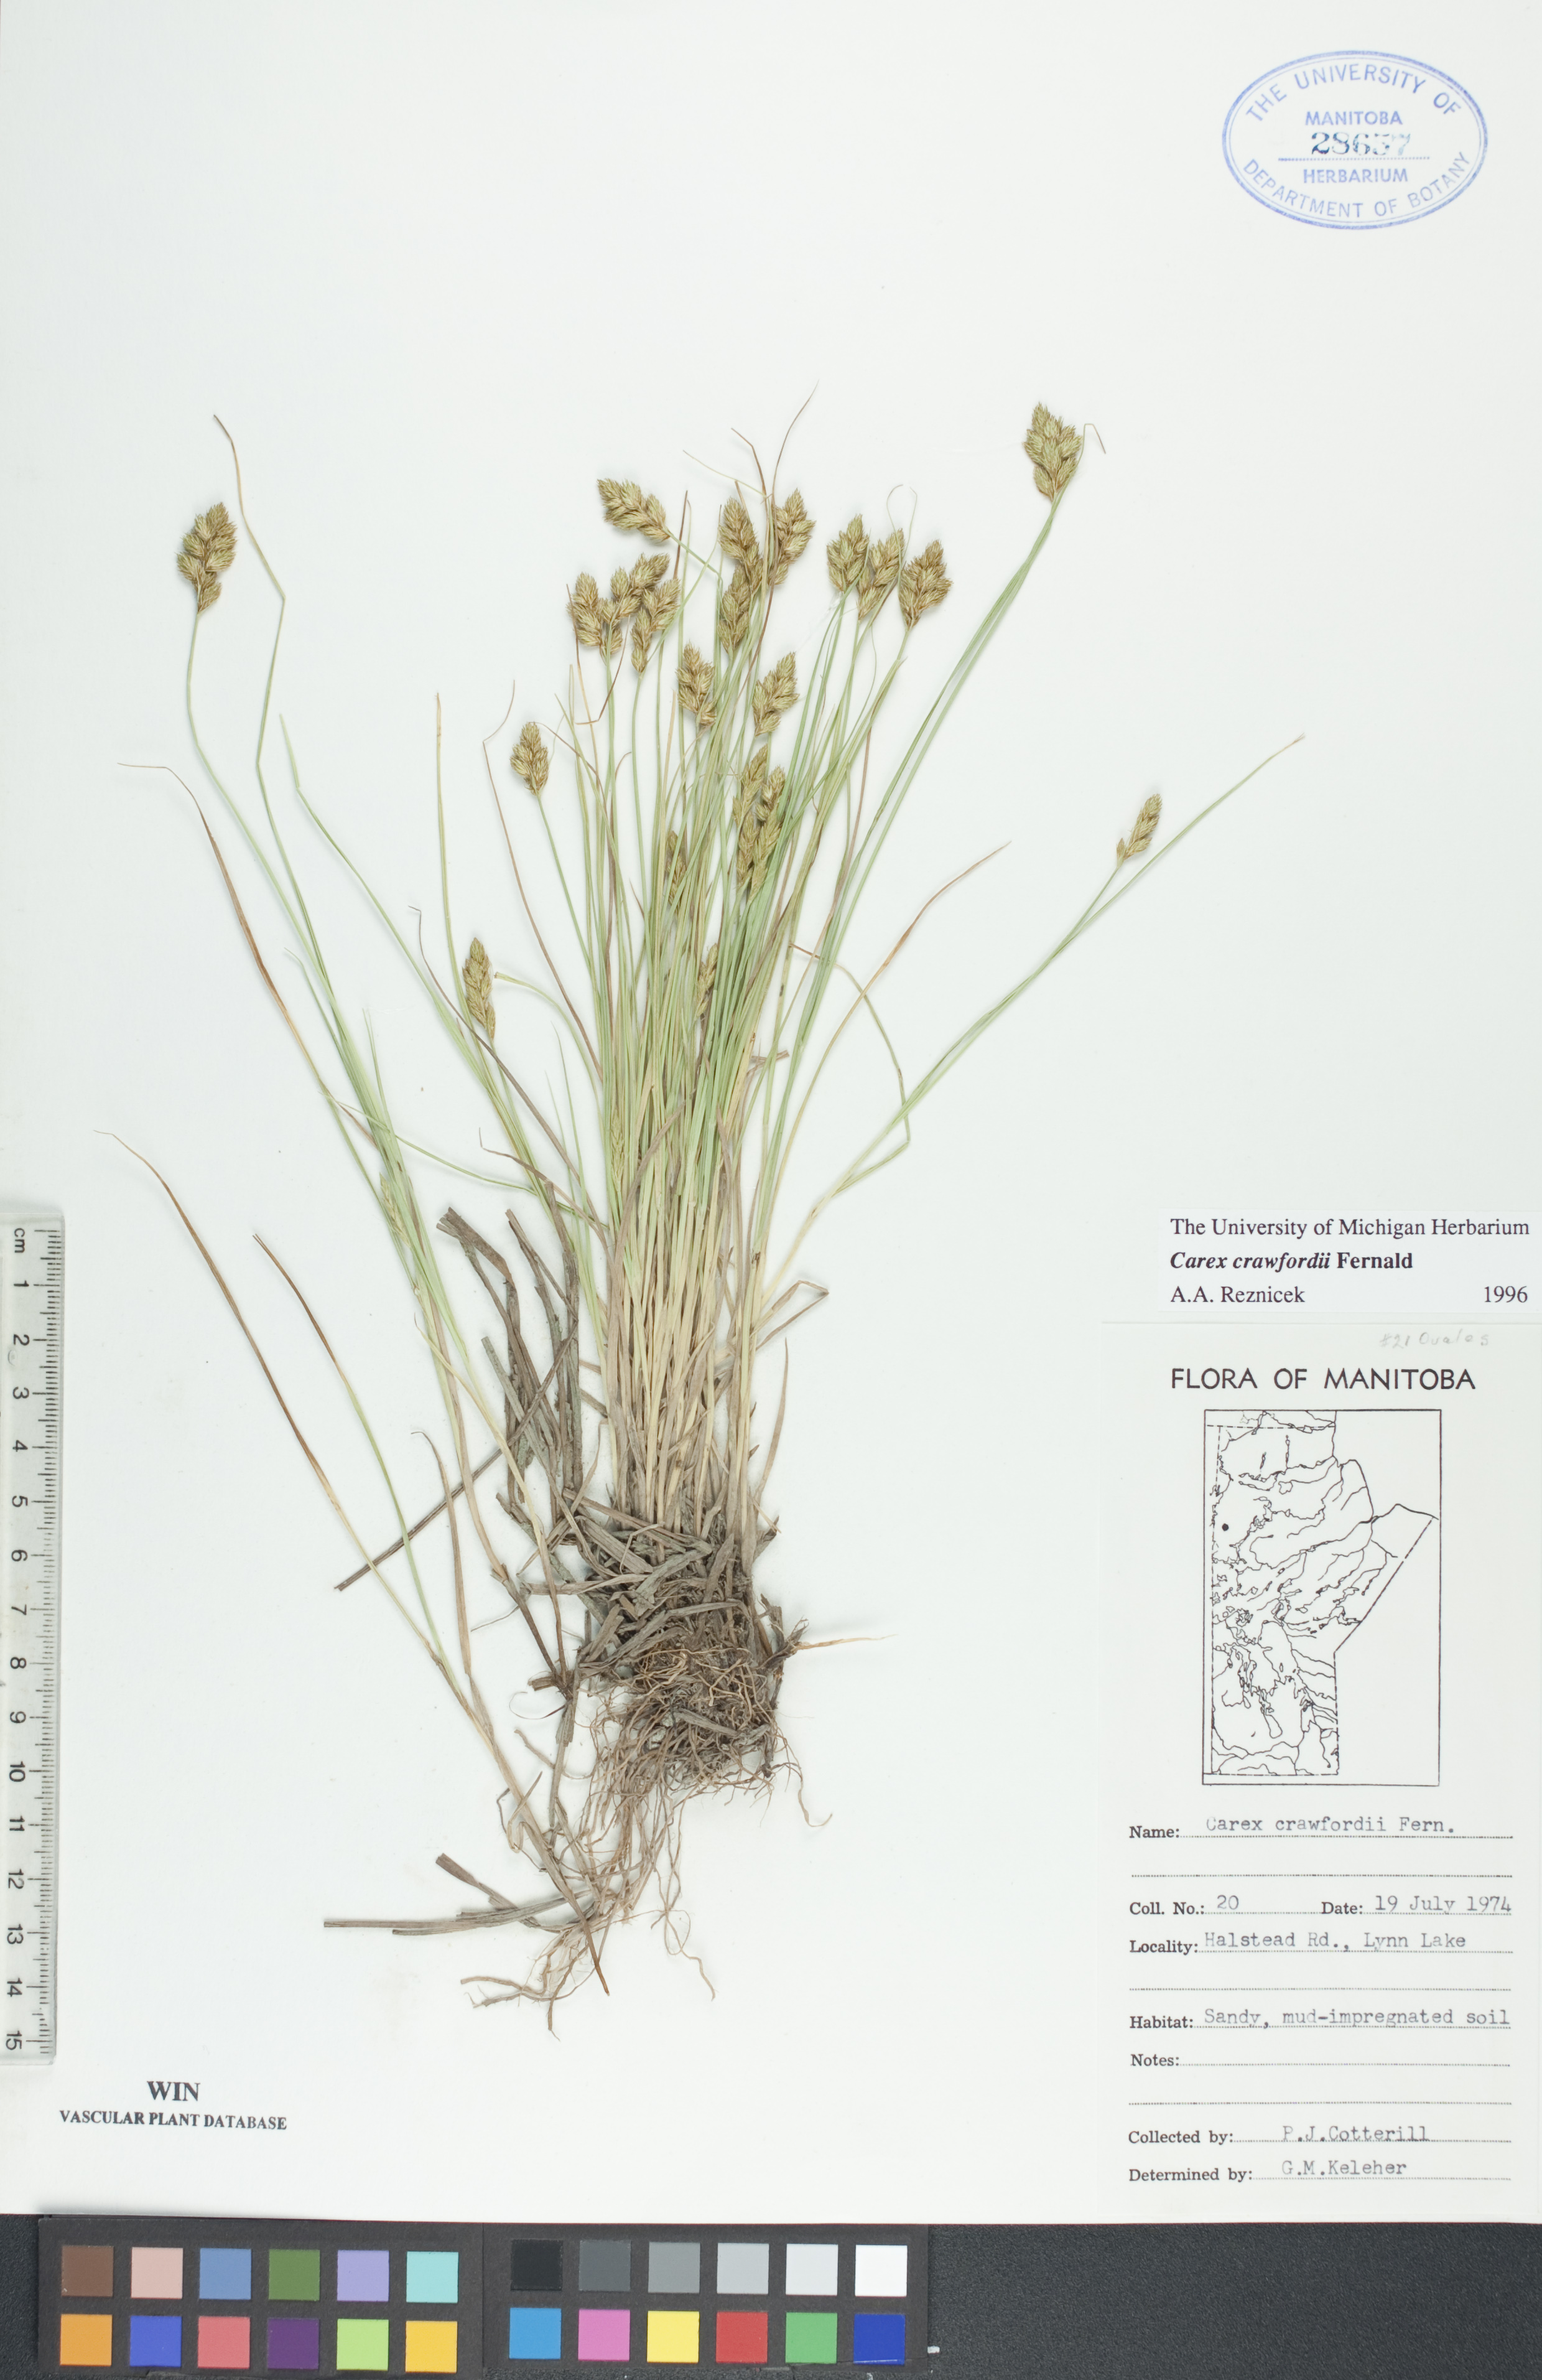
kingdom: Plantae
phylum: Tracheophyta
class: Liliopsida
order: Poales
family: Cyperaceae
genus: Carex
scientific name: Carex crawfordii
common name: Crawford's sedge
